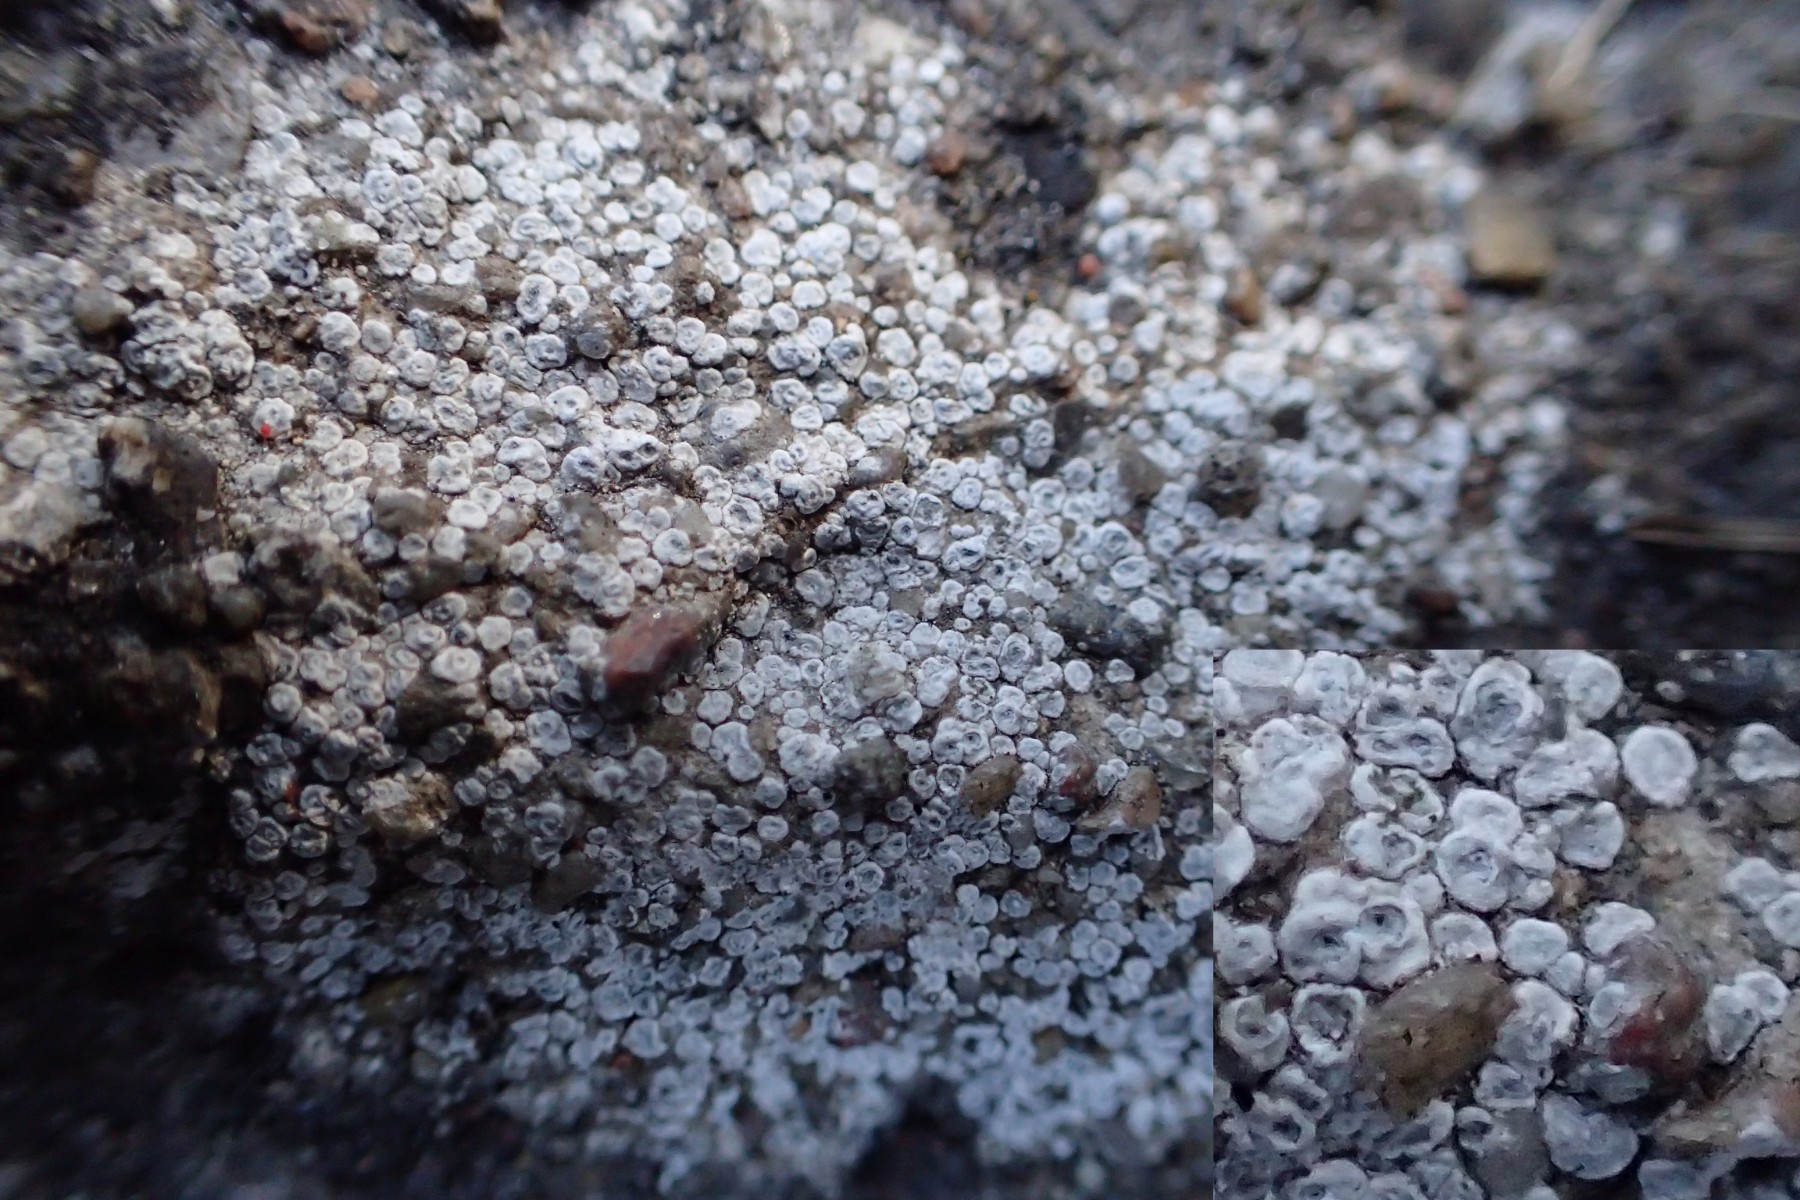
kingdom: Fungi
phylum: Ascomycota
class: Lecanoromycetes
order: Pertusariales
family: Megasporaceae
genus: Circinaria
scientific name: Circinaria contorta
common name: indviklet hulskivelav
